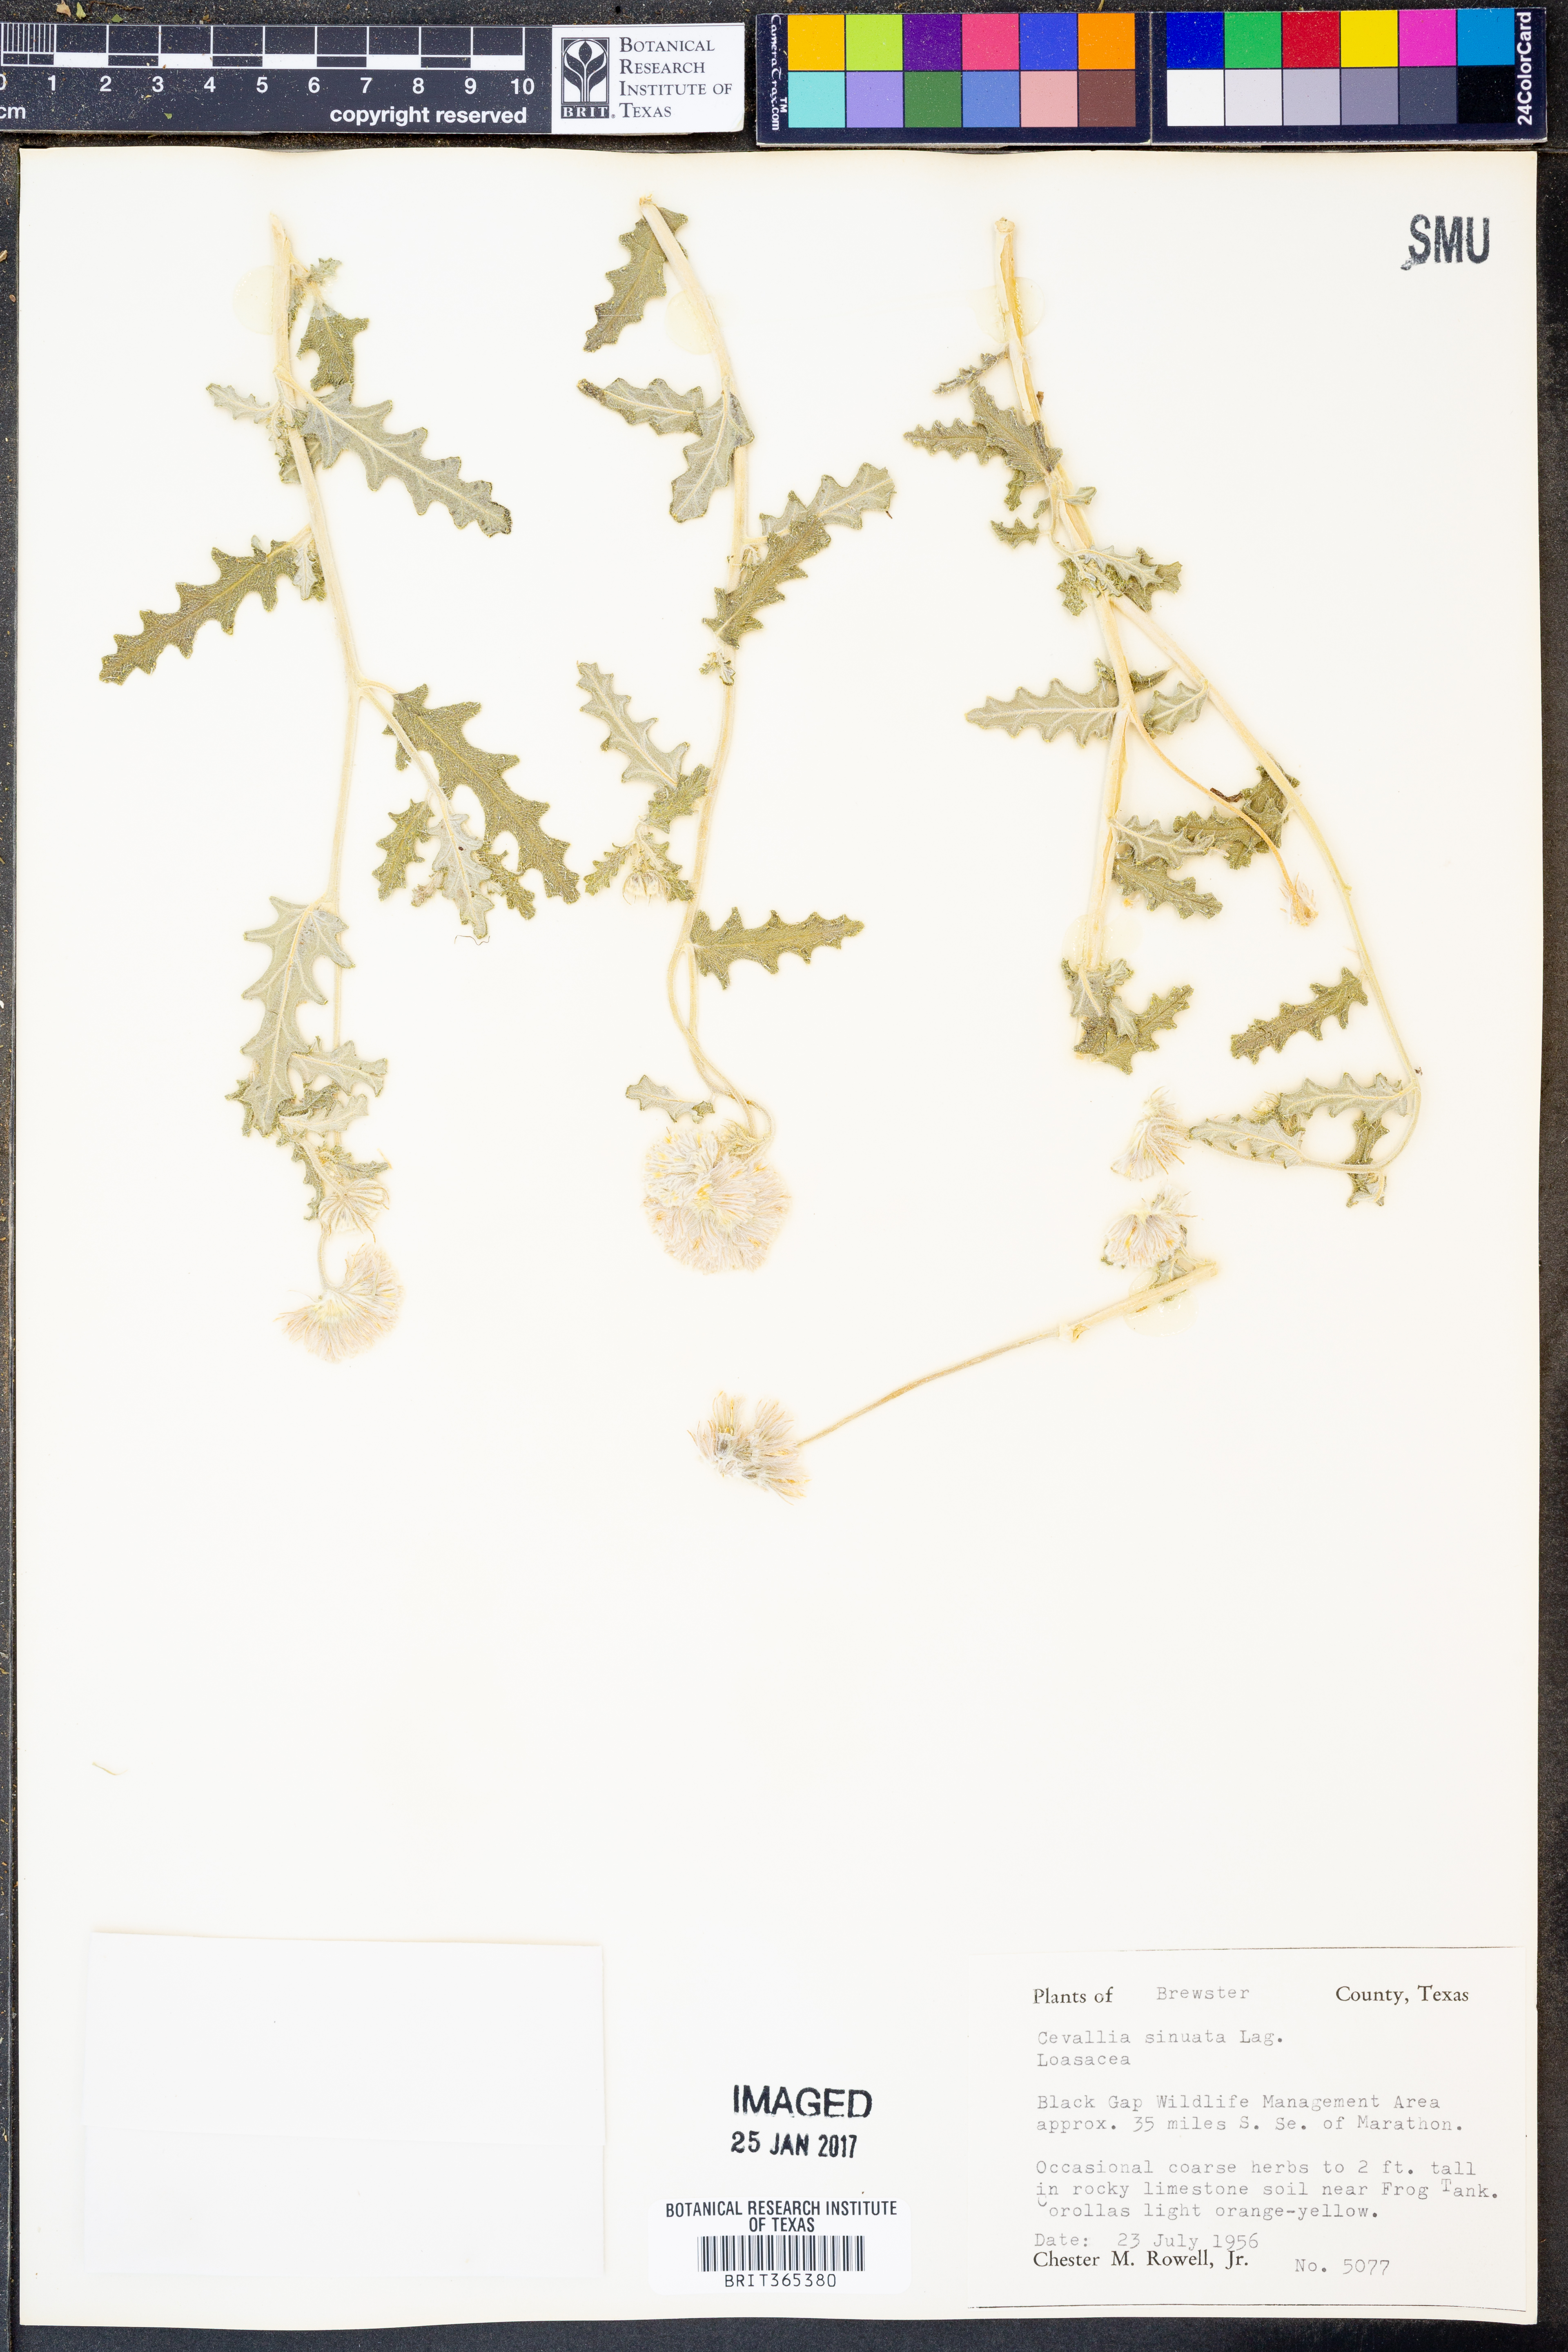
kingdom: Plantae
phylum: Tracheophyta
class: Magnoliopsida
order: Cornales
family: Loasaceae
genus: Cevallia
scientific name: Cevallia sinuata
